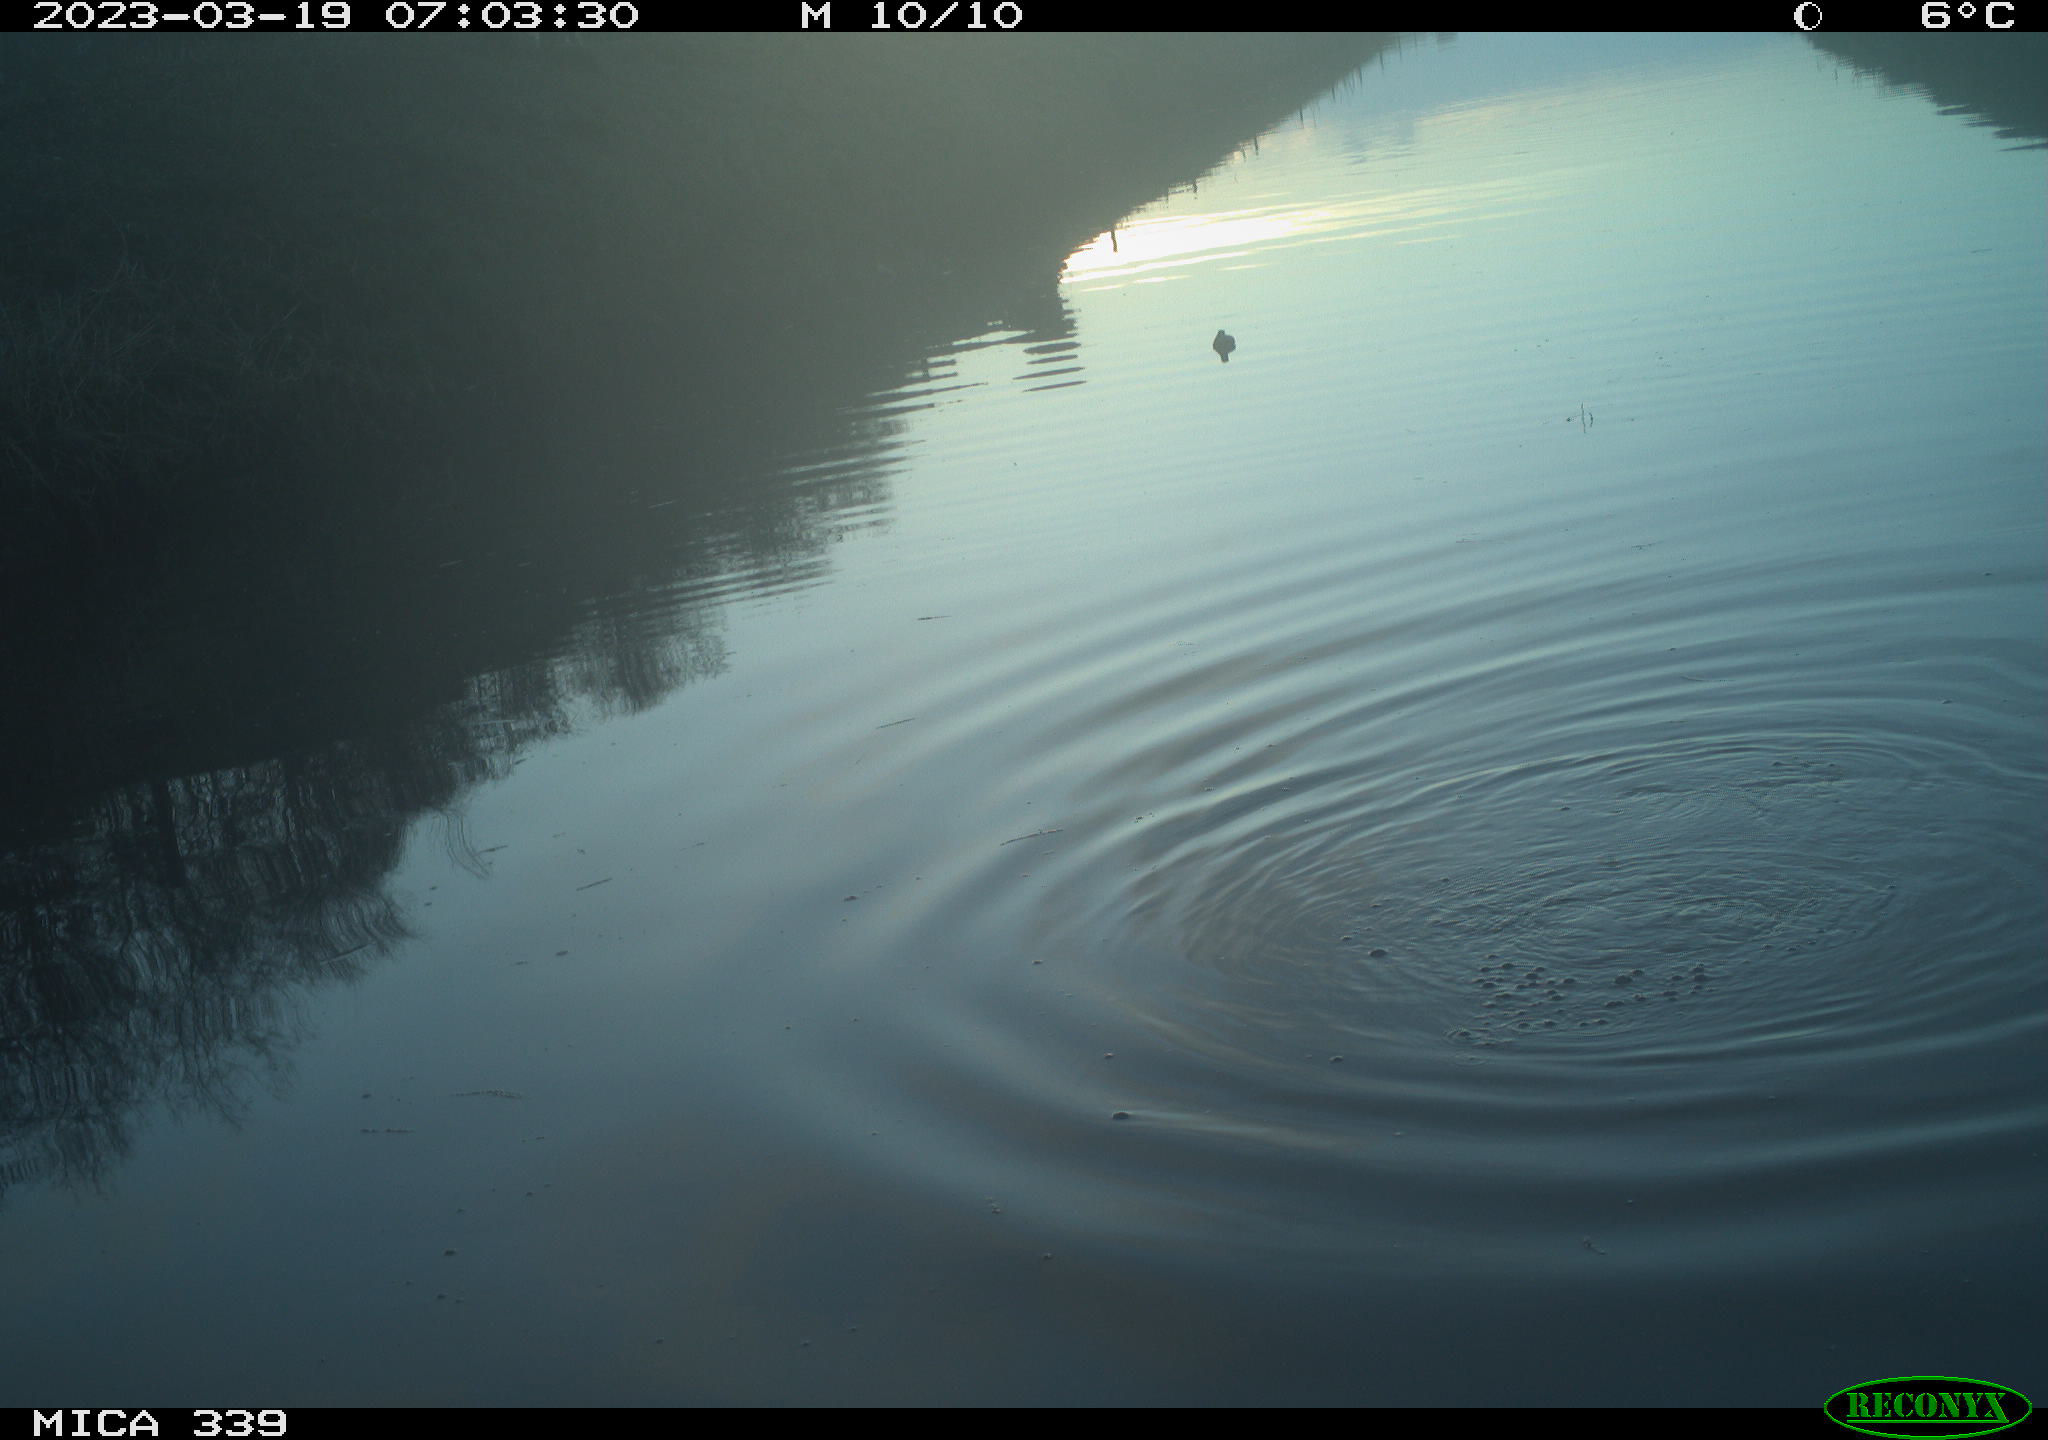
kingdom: Animalia
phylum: Chordata
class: Aves
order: Anseriformes
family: Anatidae
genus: Anas
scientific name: Anas
